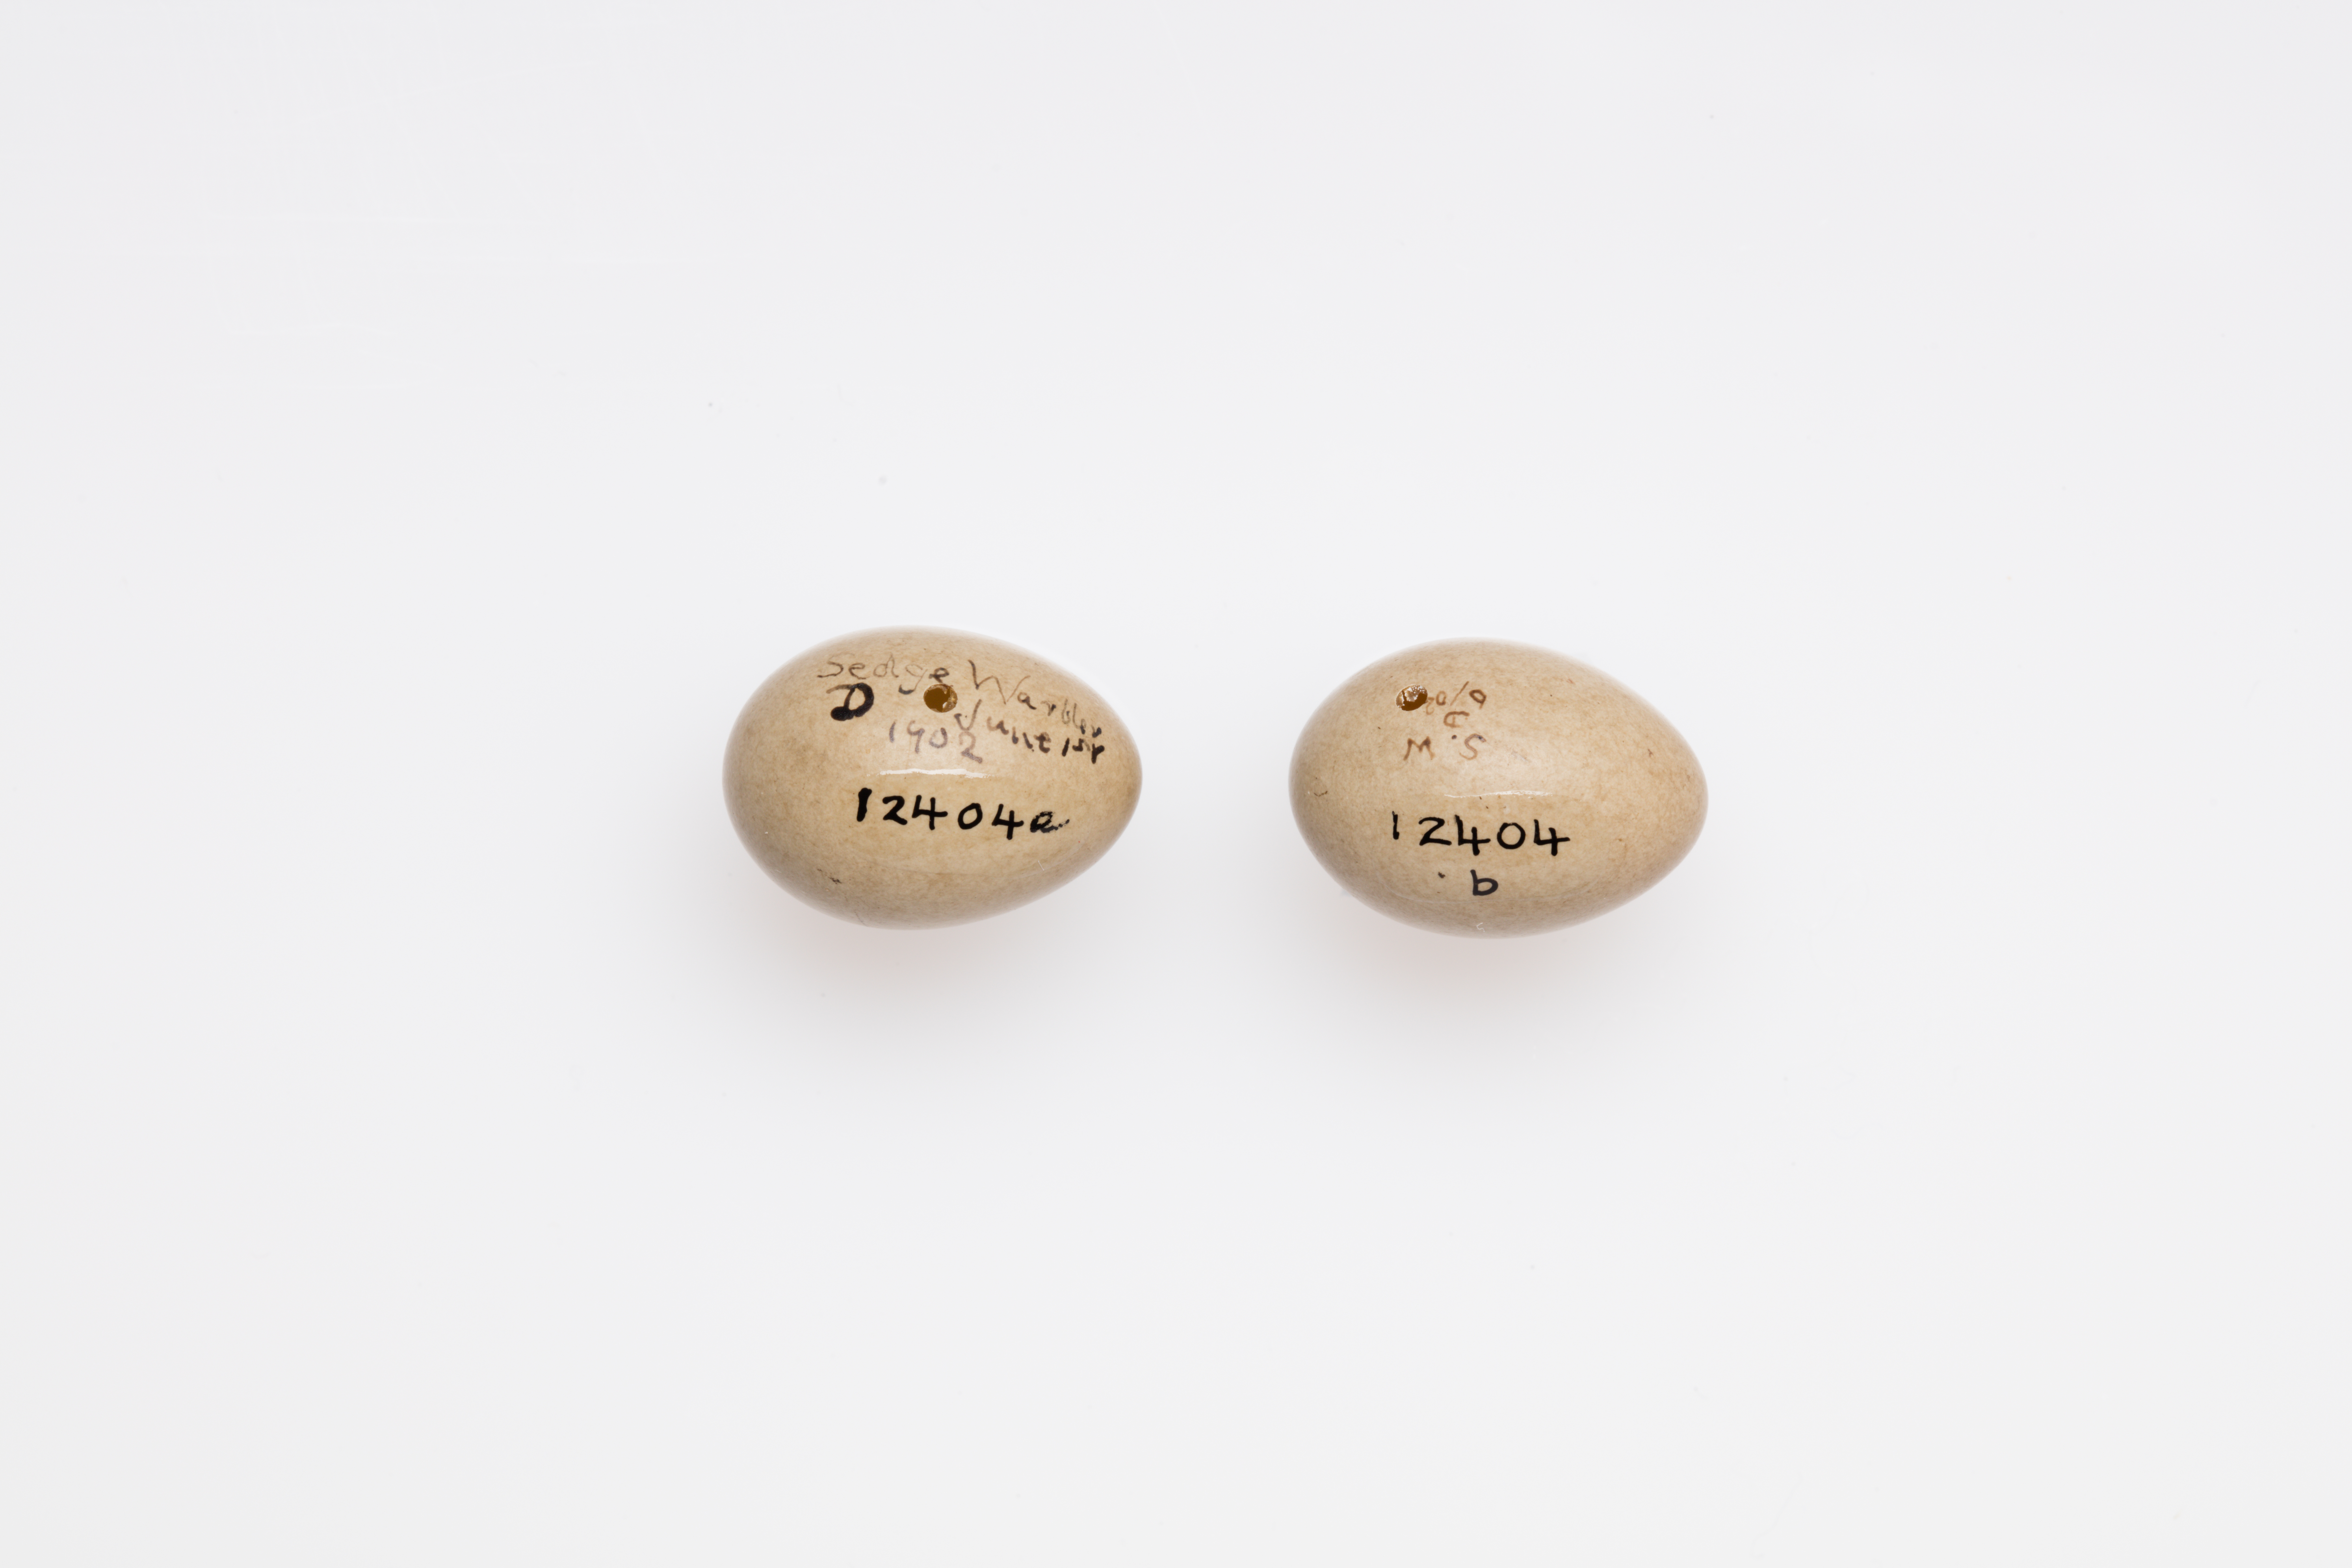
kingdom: Animalia
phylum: Chordata
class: Aves
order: Passeriformes
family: Acrocephalidae
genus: Acrocephalus
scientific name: Acrocephalus schoenobaenus
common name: Sedge warbler
